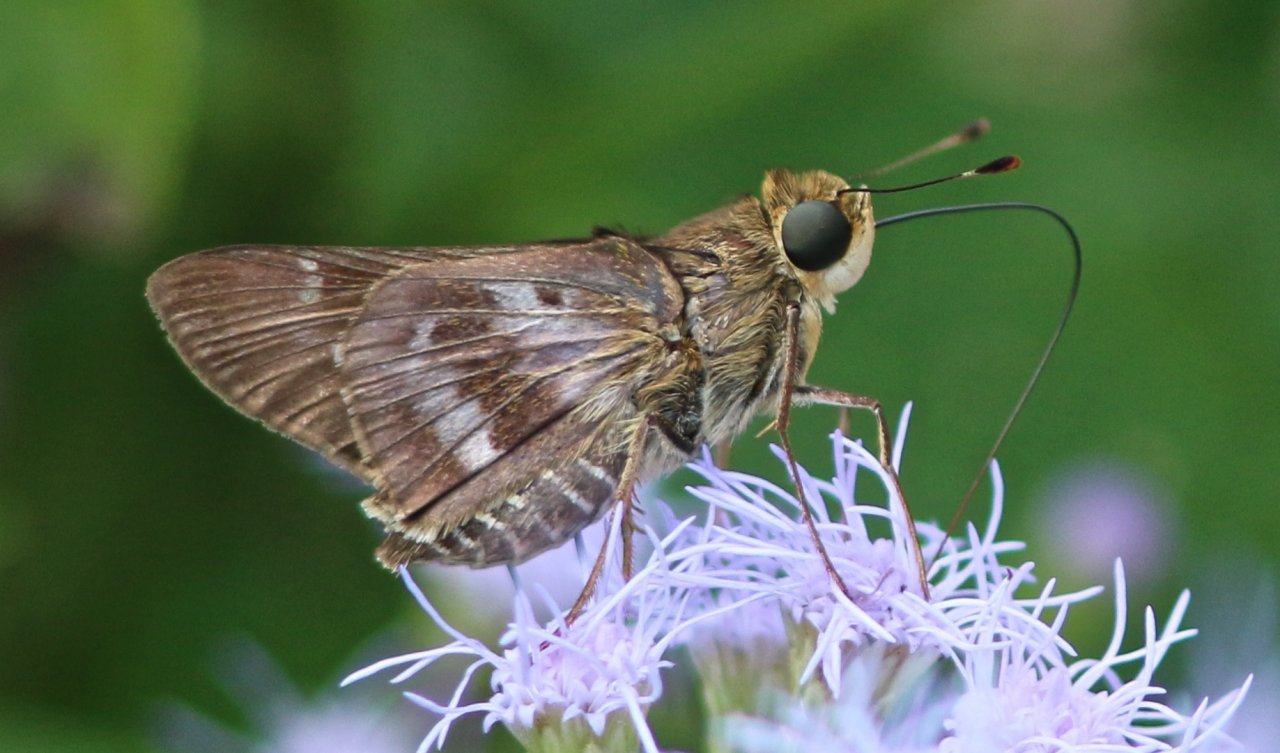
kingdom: Animalia
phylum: Arthropoda
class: Insecta
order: Lepidoptera
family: Hesperiidae
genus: Nyctelius
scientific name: Nyctelius nyctelius
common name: Violet-banded Skipper
